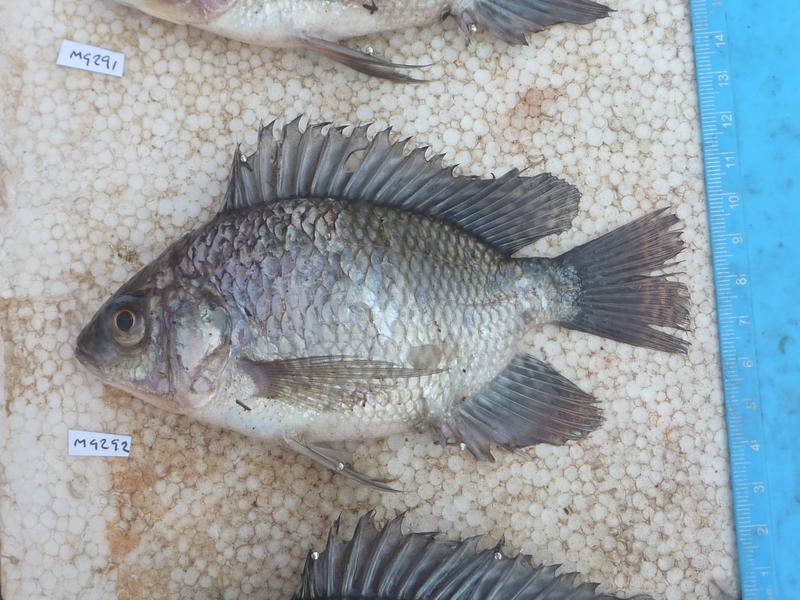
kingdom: Animalia
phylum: Chordata
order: Perciformes
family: Cichlidae
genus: Oreochromis
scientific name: Oreochromis niloticus
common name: Nile tilapia
